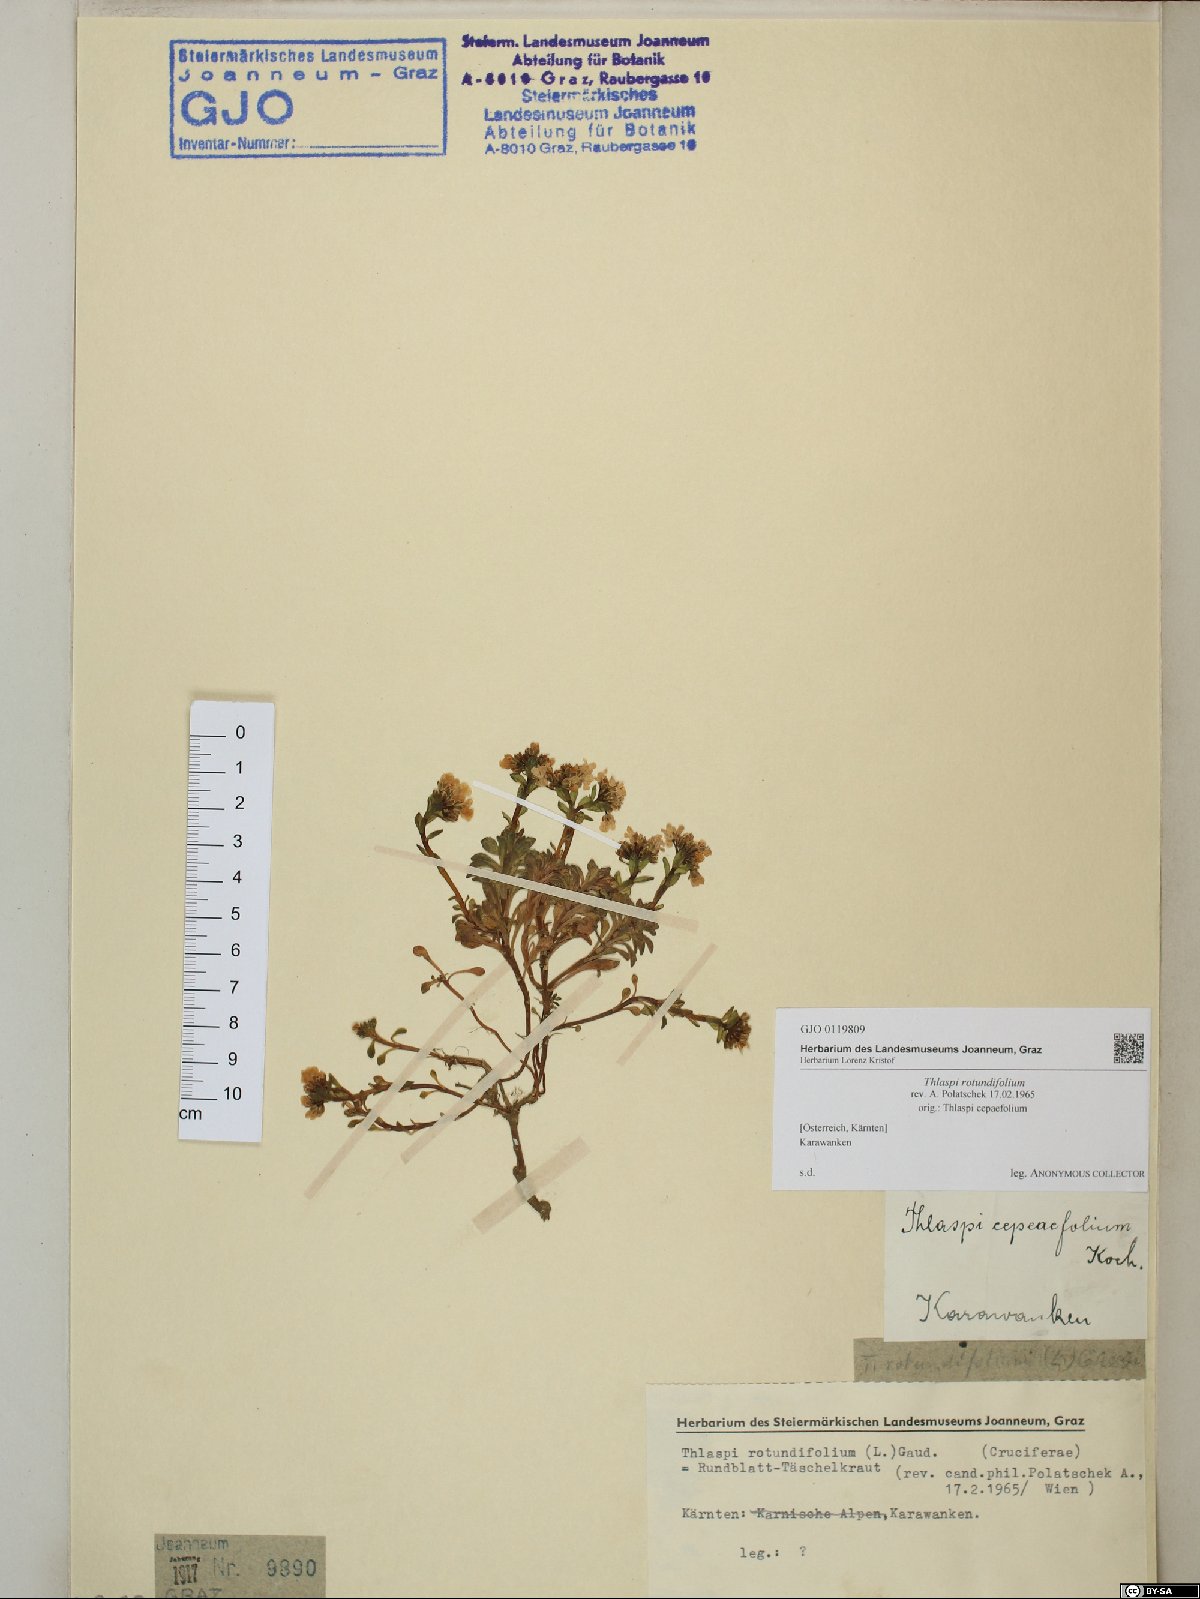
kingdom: Plantae
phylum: Tracheophyta
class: Magnoliopsida
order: Brassicales
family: Brassicaceae
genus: Noccaea
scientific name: Noccaea rotundifolia
